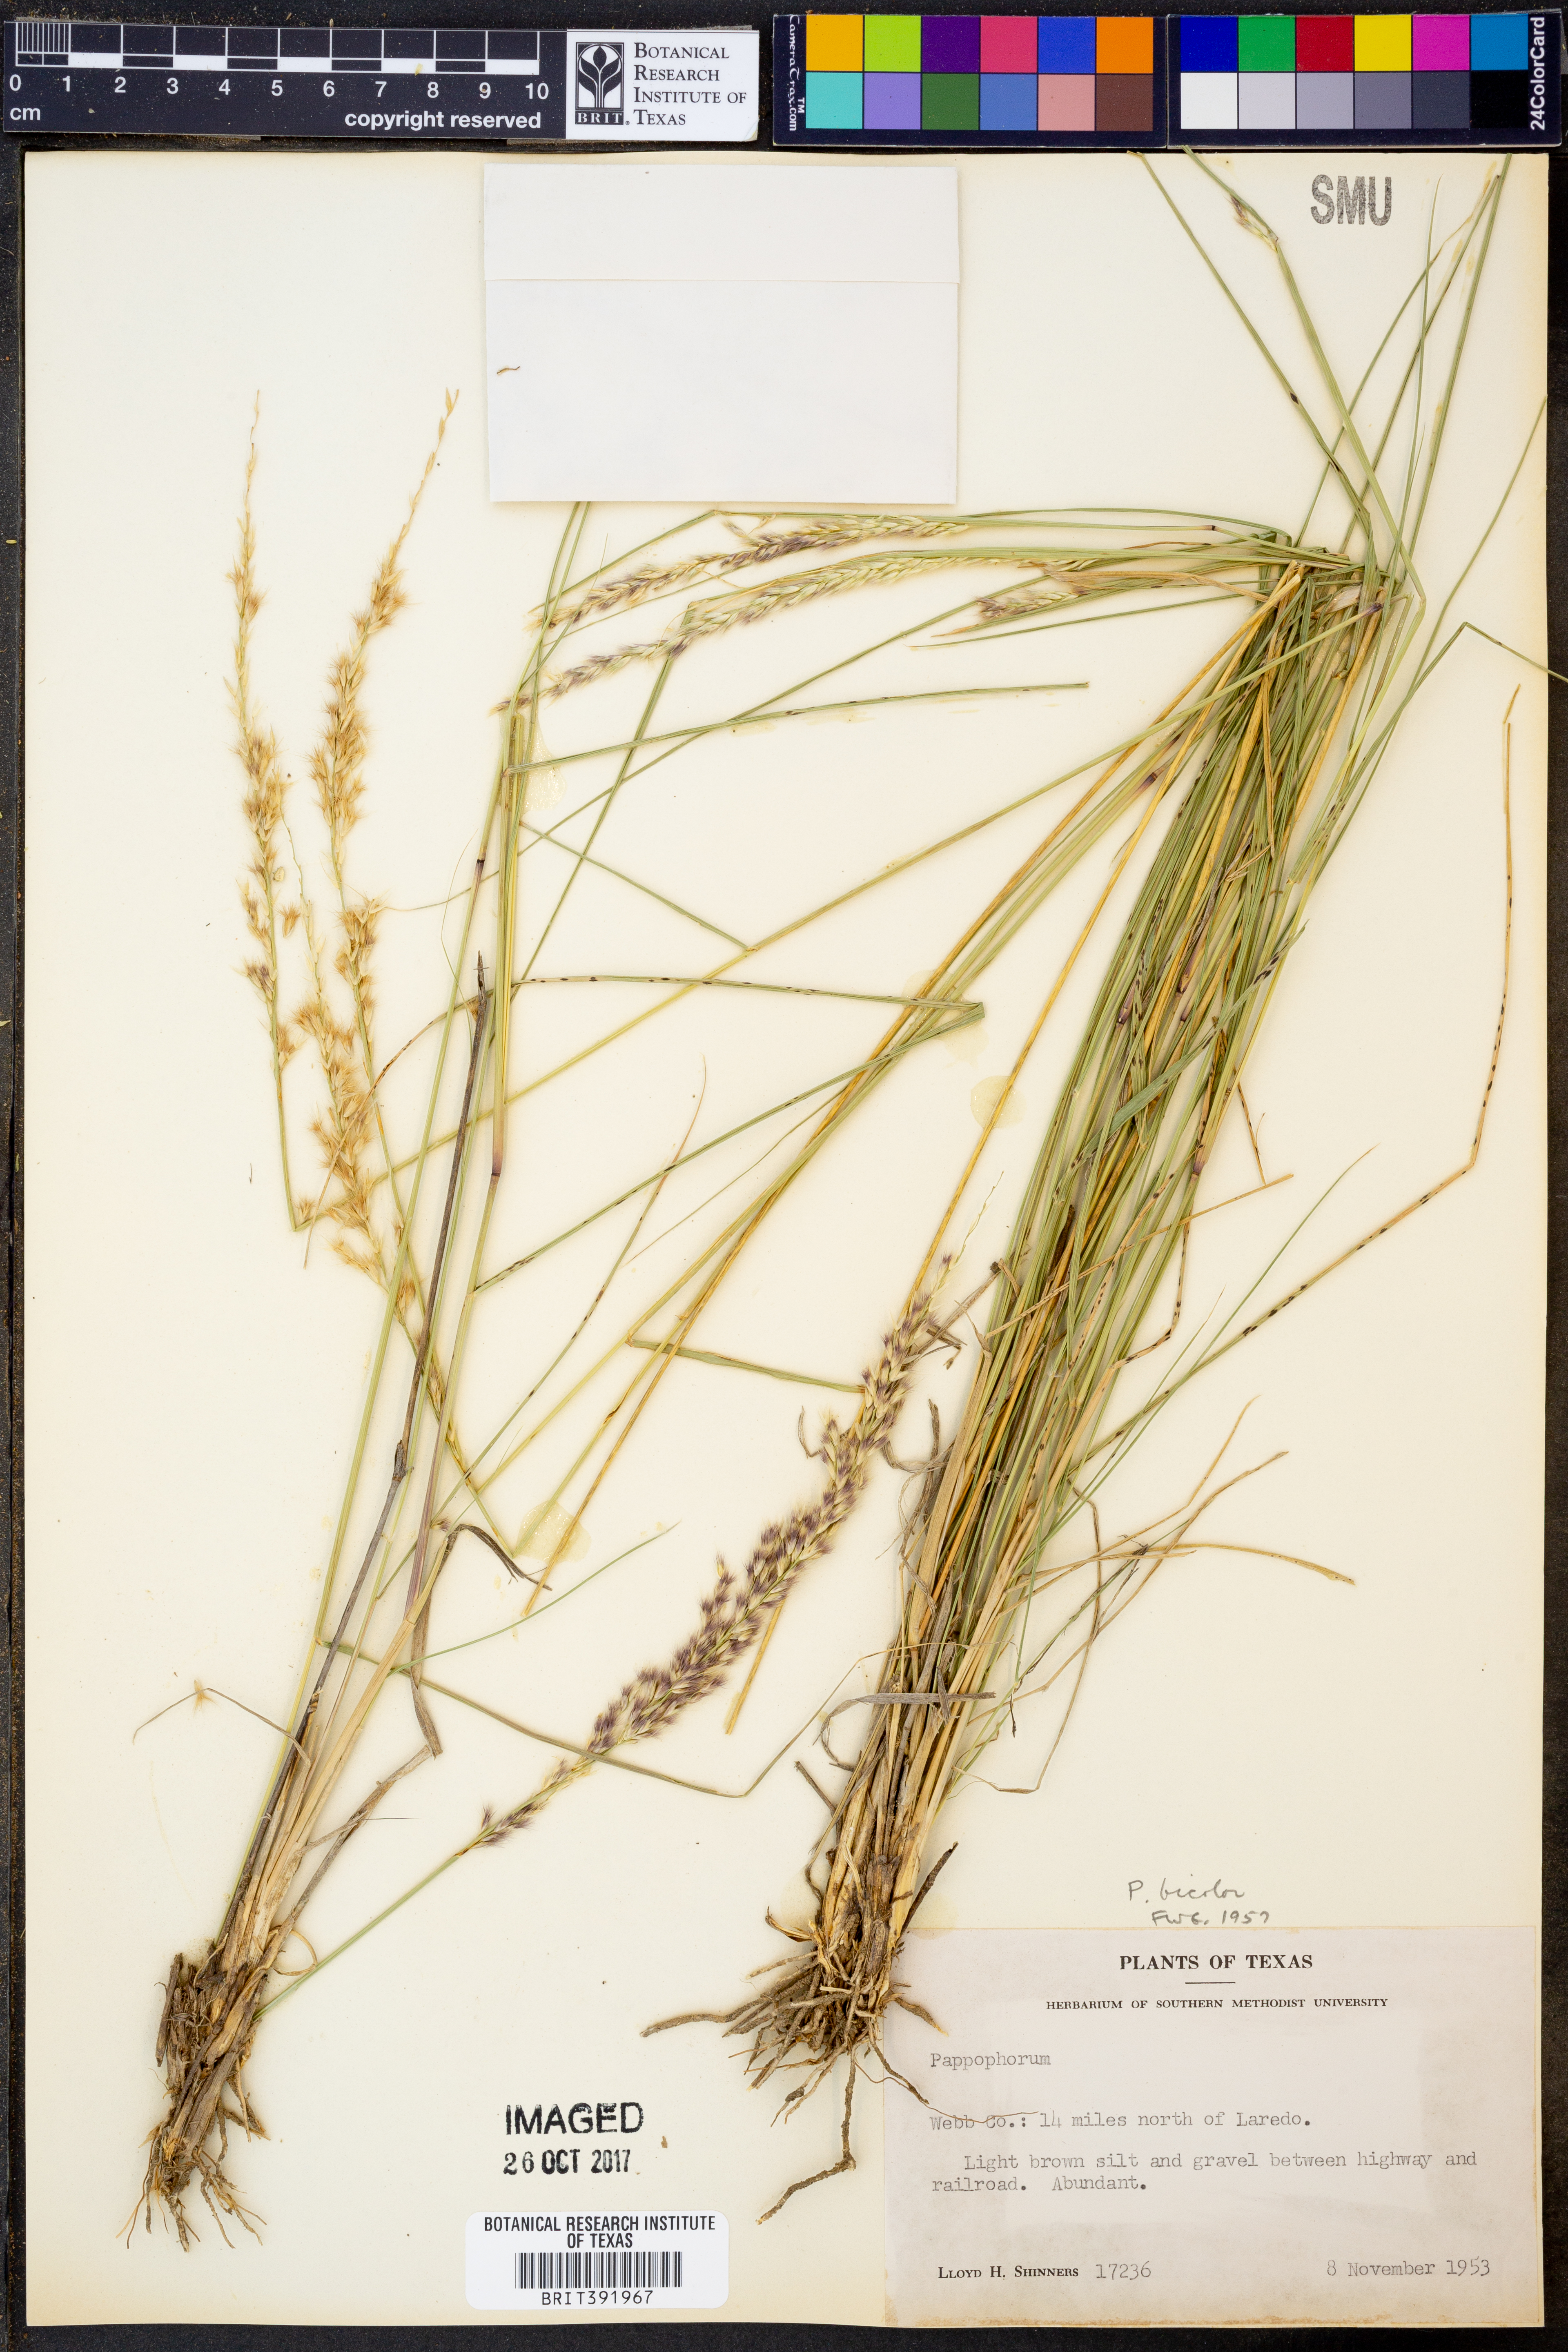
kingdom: Plantae
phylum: Tracheophyta
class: Liliopsida
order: Poales
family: Poaceae
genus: Pappophorum
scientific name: Pappophorum bicolor
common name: Pink pappus grass
